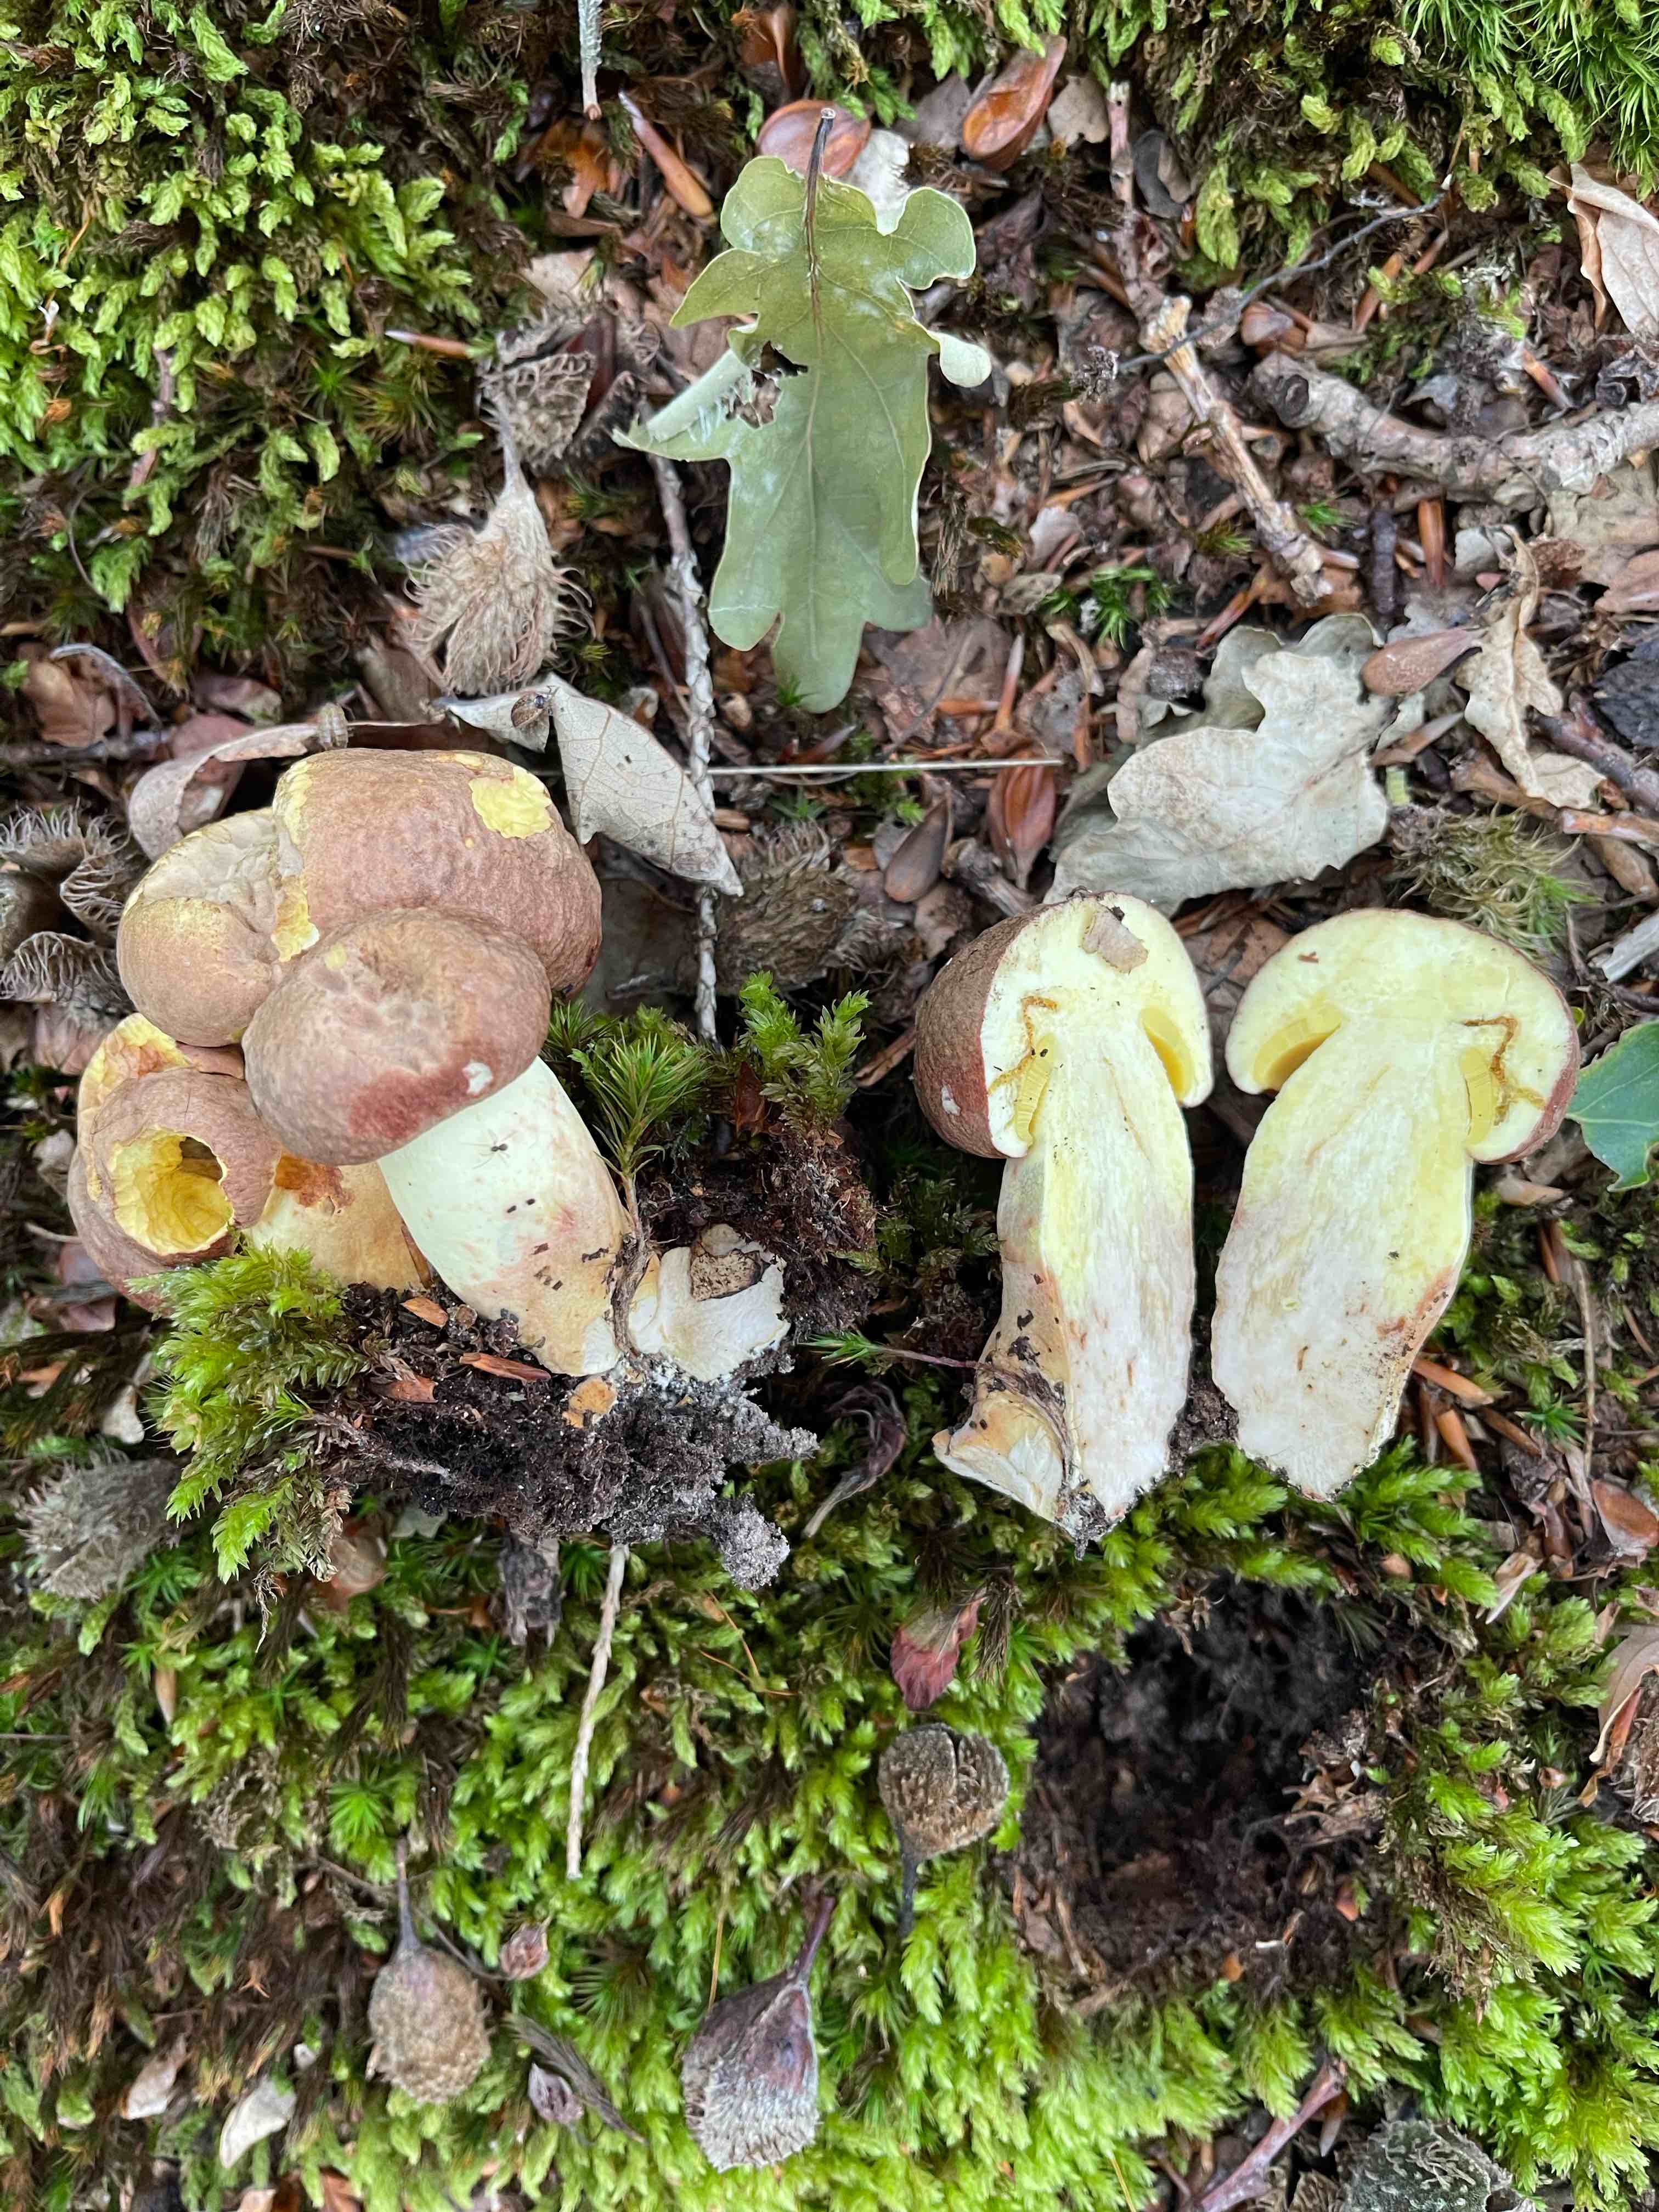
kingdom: Fungi
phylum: Basidiomycota
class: Agaricomycetes
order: Boletales
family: Boletaceae
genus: Butyriboletus
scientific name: Butyriboletus appendiculatus
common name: tenstokket rørhat
